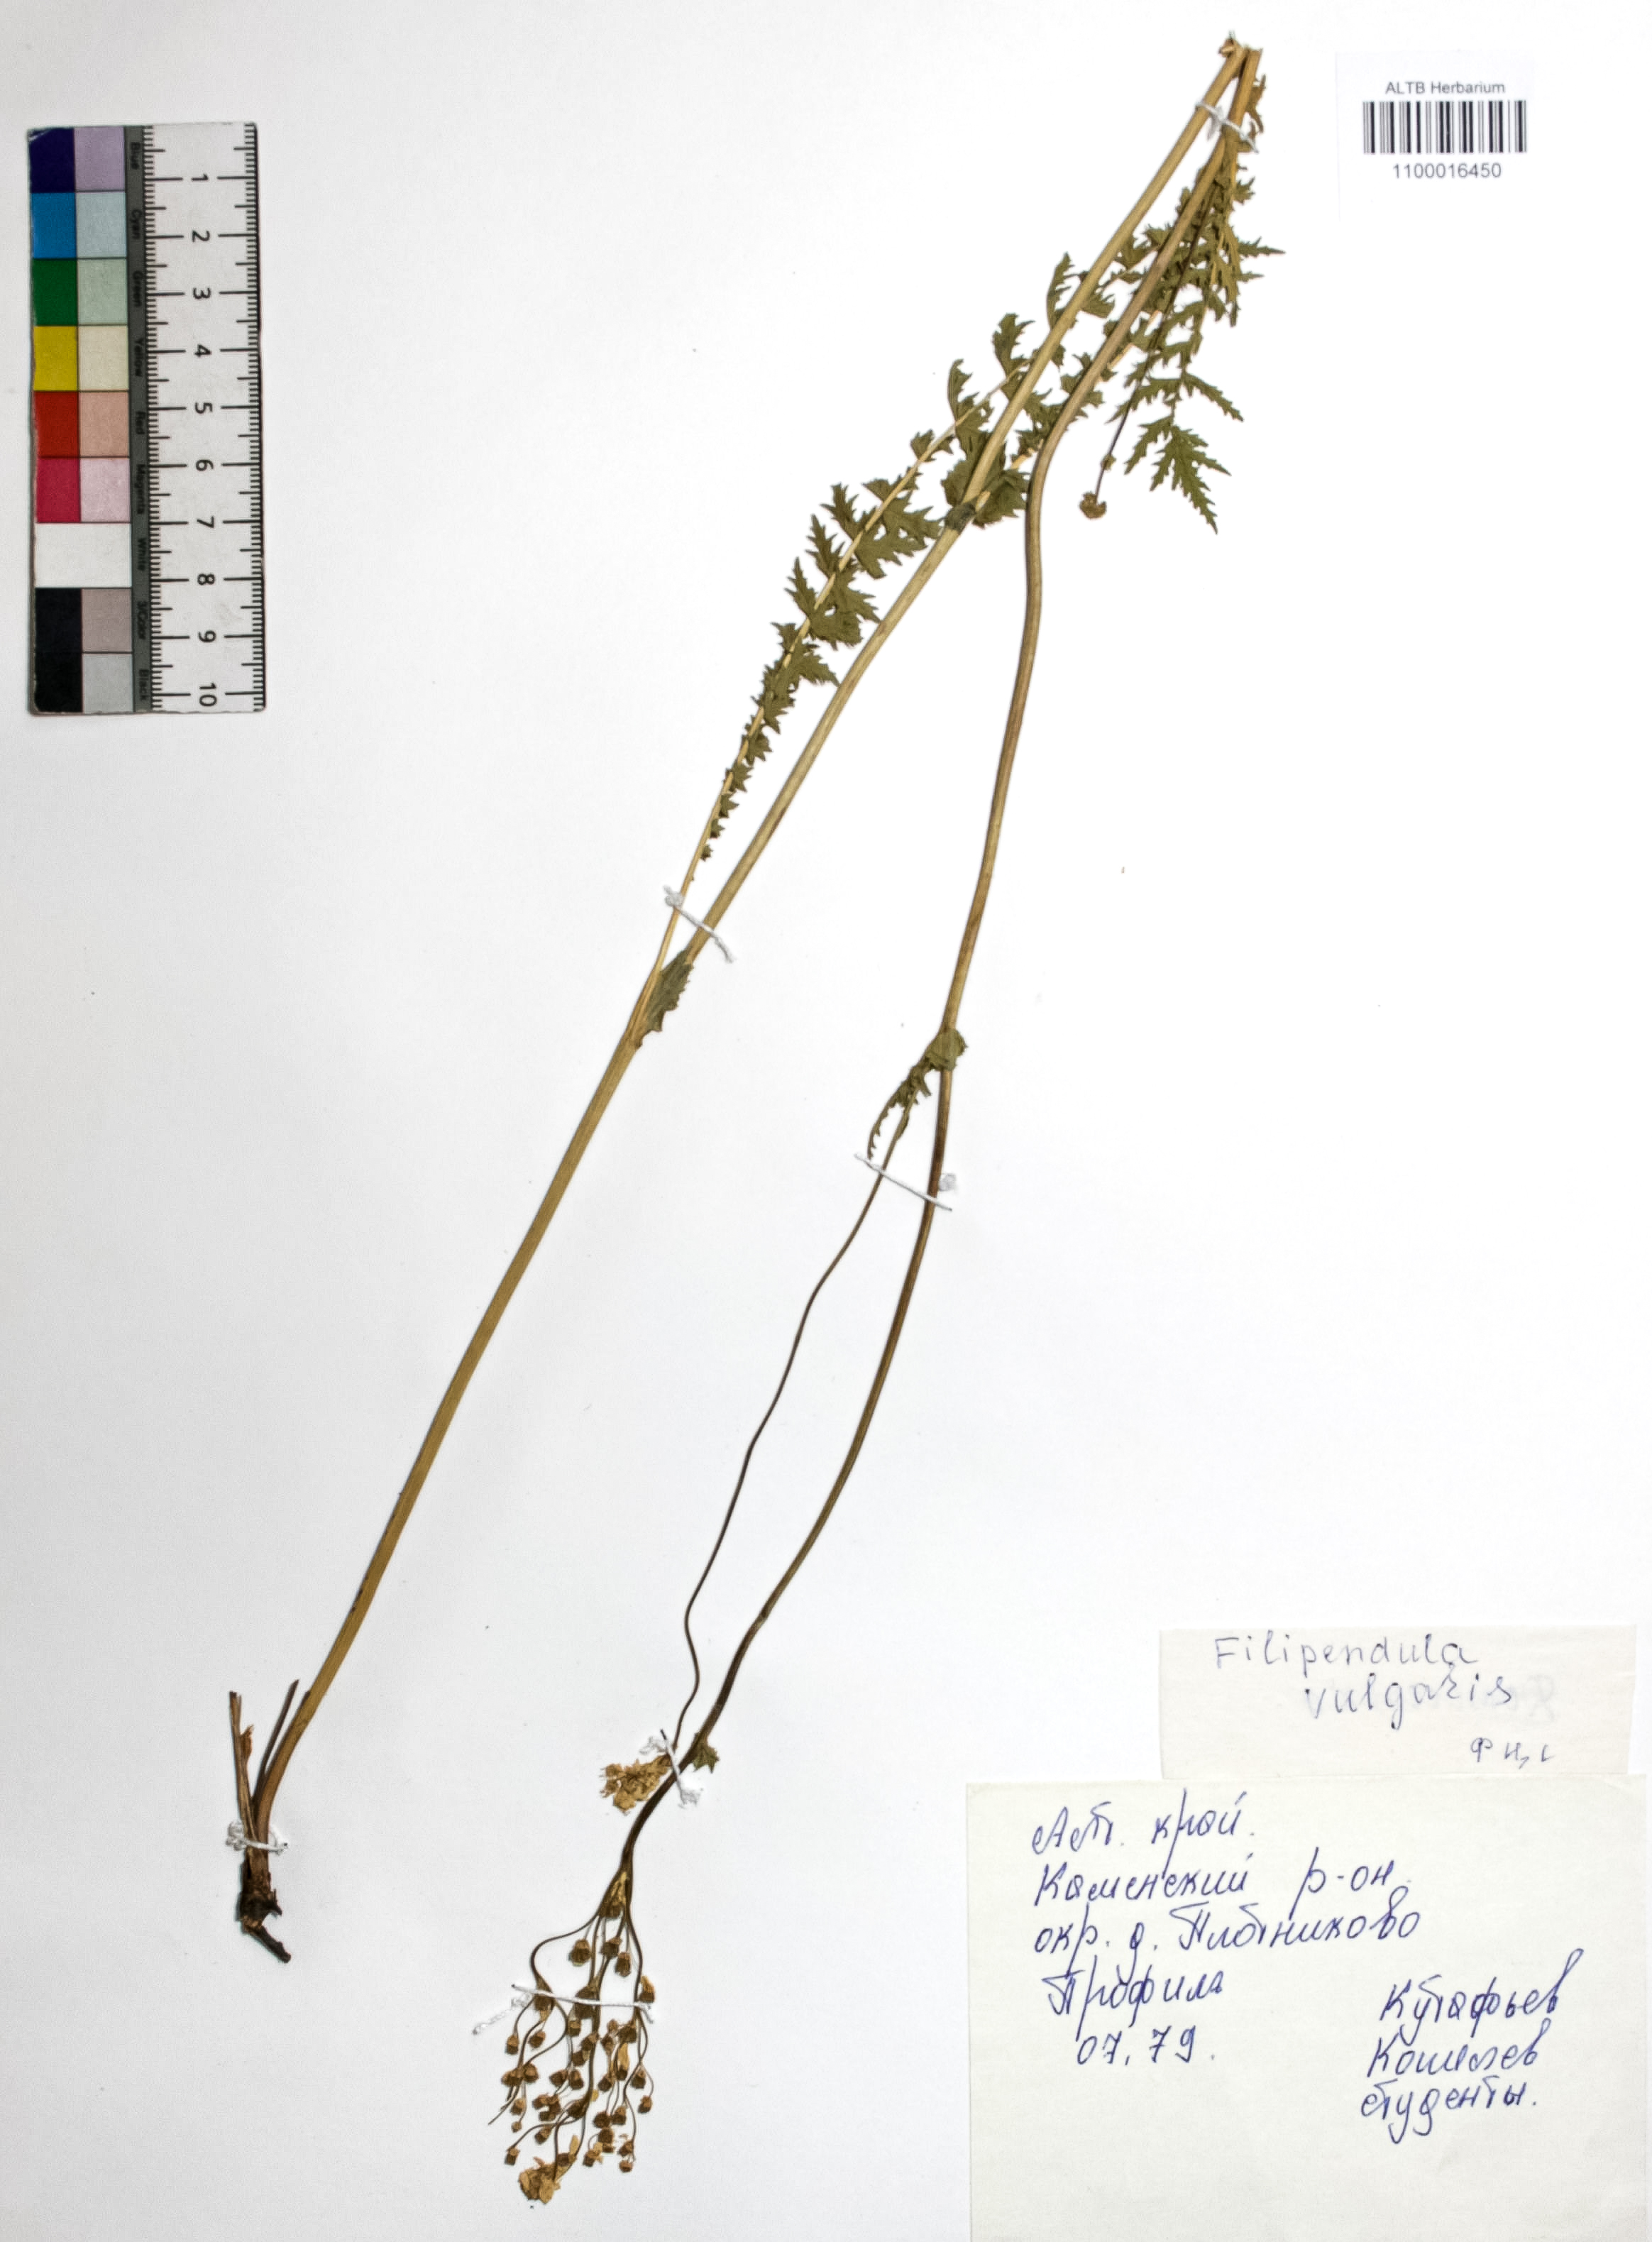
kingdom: Plantae
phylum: Tracheophyta
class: Magnoliopsida
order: Rosales
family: Rosaceae
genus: Filipendula
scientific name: Filipendula vulgaris
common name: Dropwort
